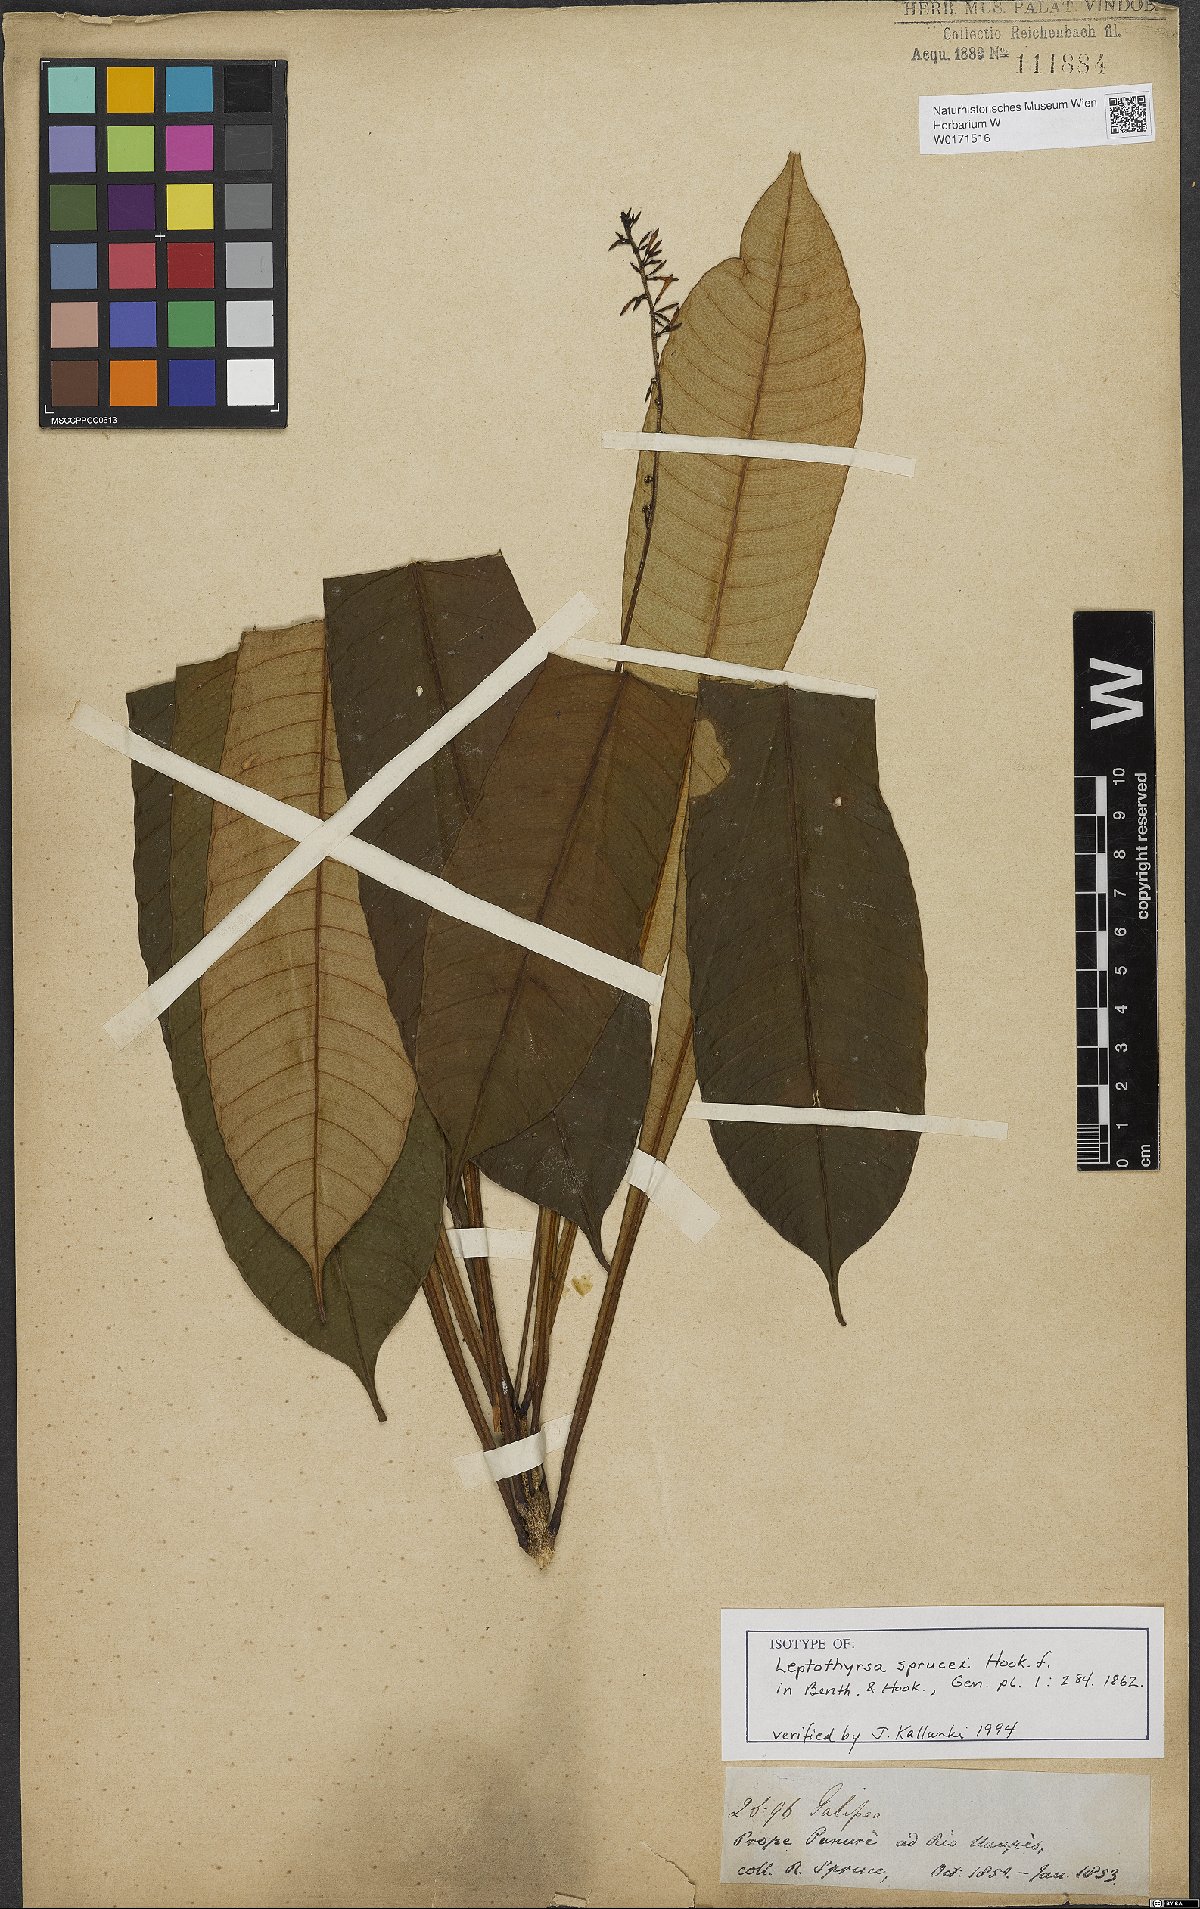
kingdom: Plantae
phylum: Tracheophyta
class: Magnoliopsida
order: Sapindales
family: Rutaceae
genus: Leptothyrsa
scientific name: Leptothyrsa sprucei
